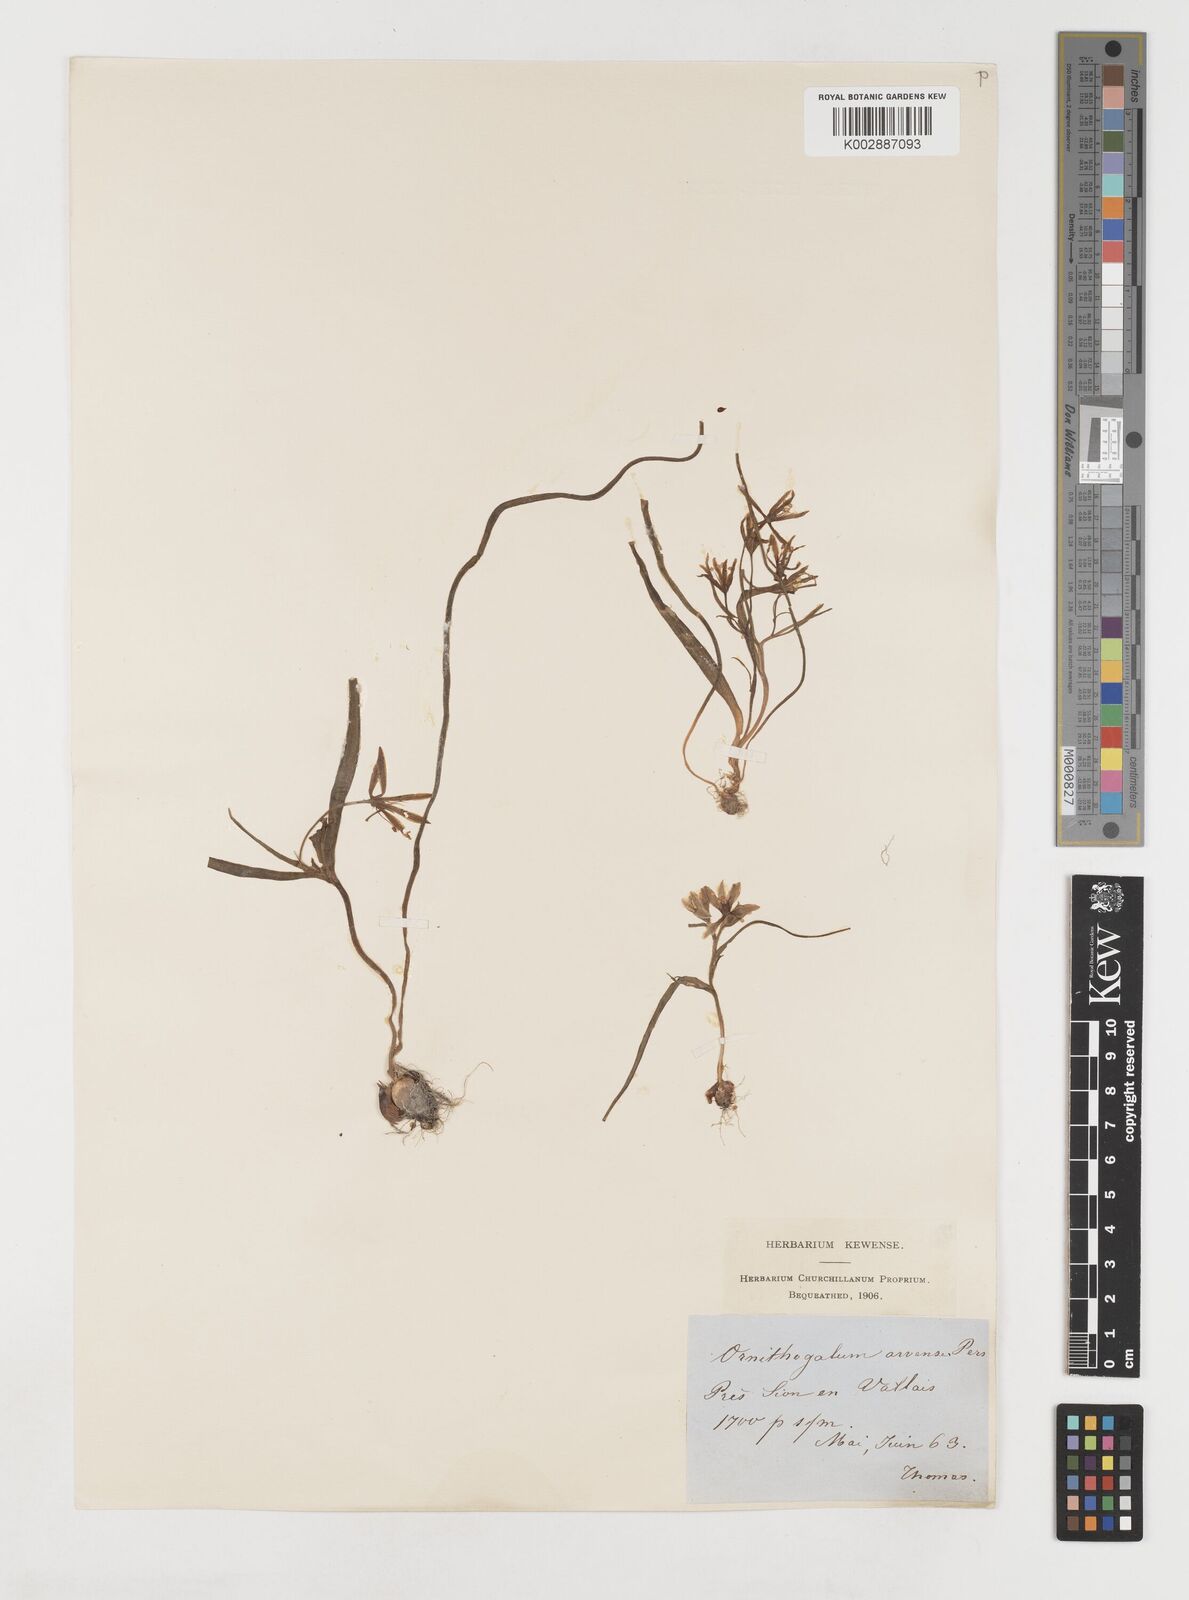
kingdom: Plantae
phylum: Tracheophyta
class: Liliopsida
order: Liliales
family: Liliaceae
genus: Gagea
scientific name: Gagea minima
